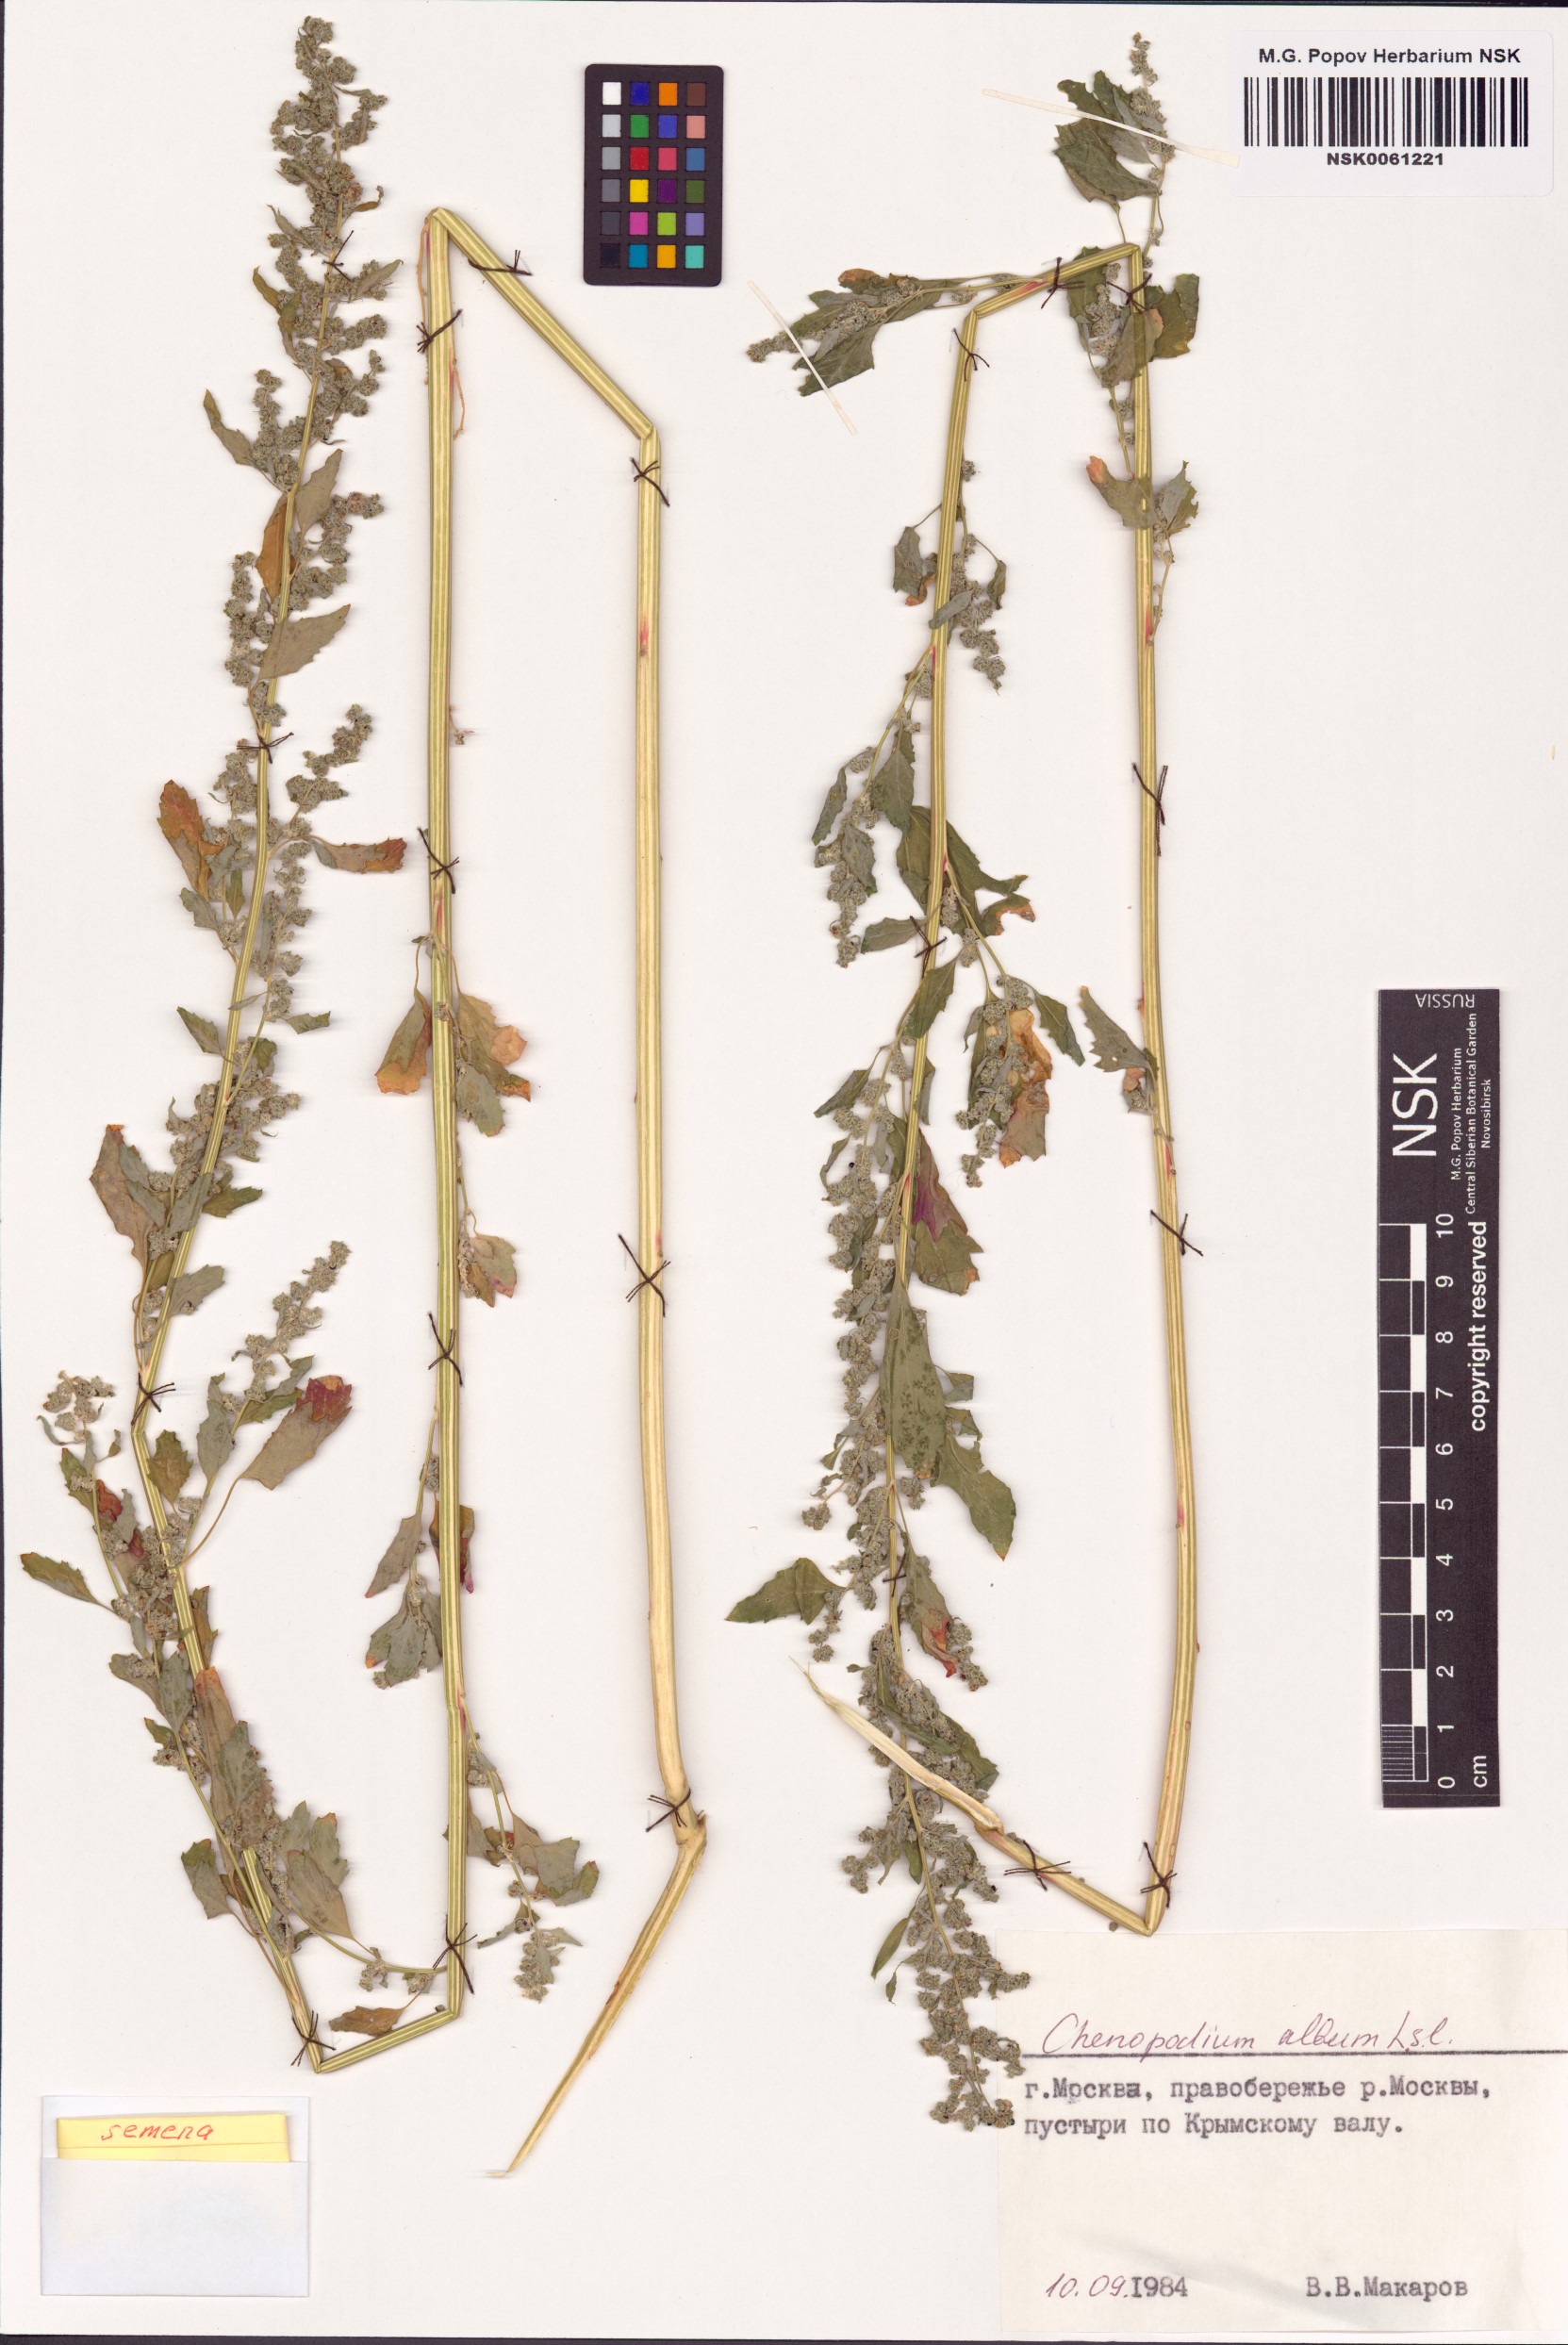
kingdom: Plantae
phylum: Tracheophyta
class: Magnoliopsida
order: Caryophyllales
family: Amaranthaceae
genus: Chenopodium
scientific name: Chenopodium album
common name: Fat-hen
